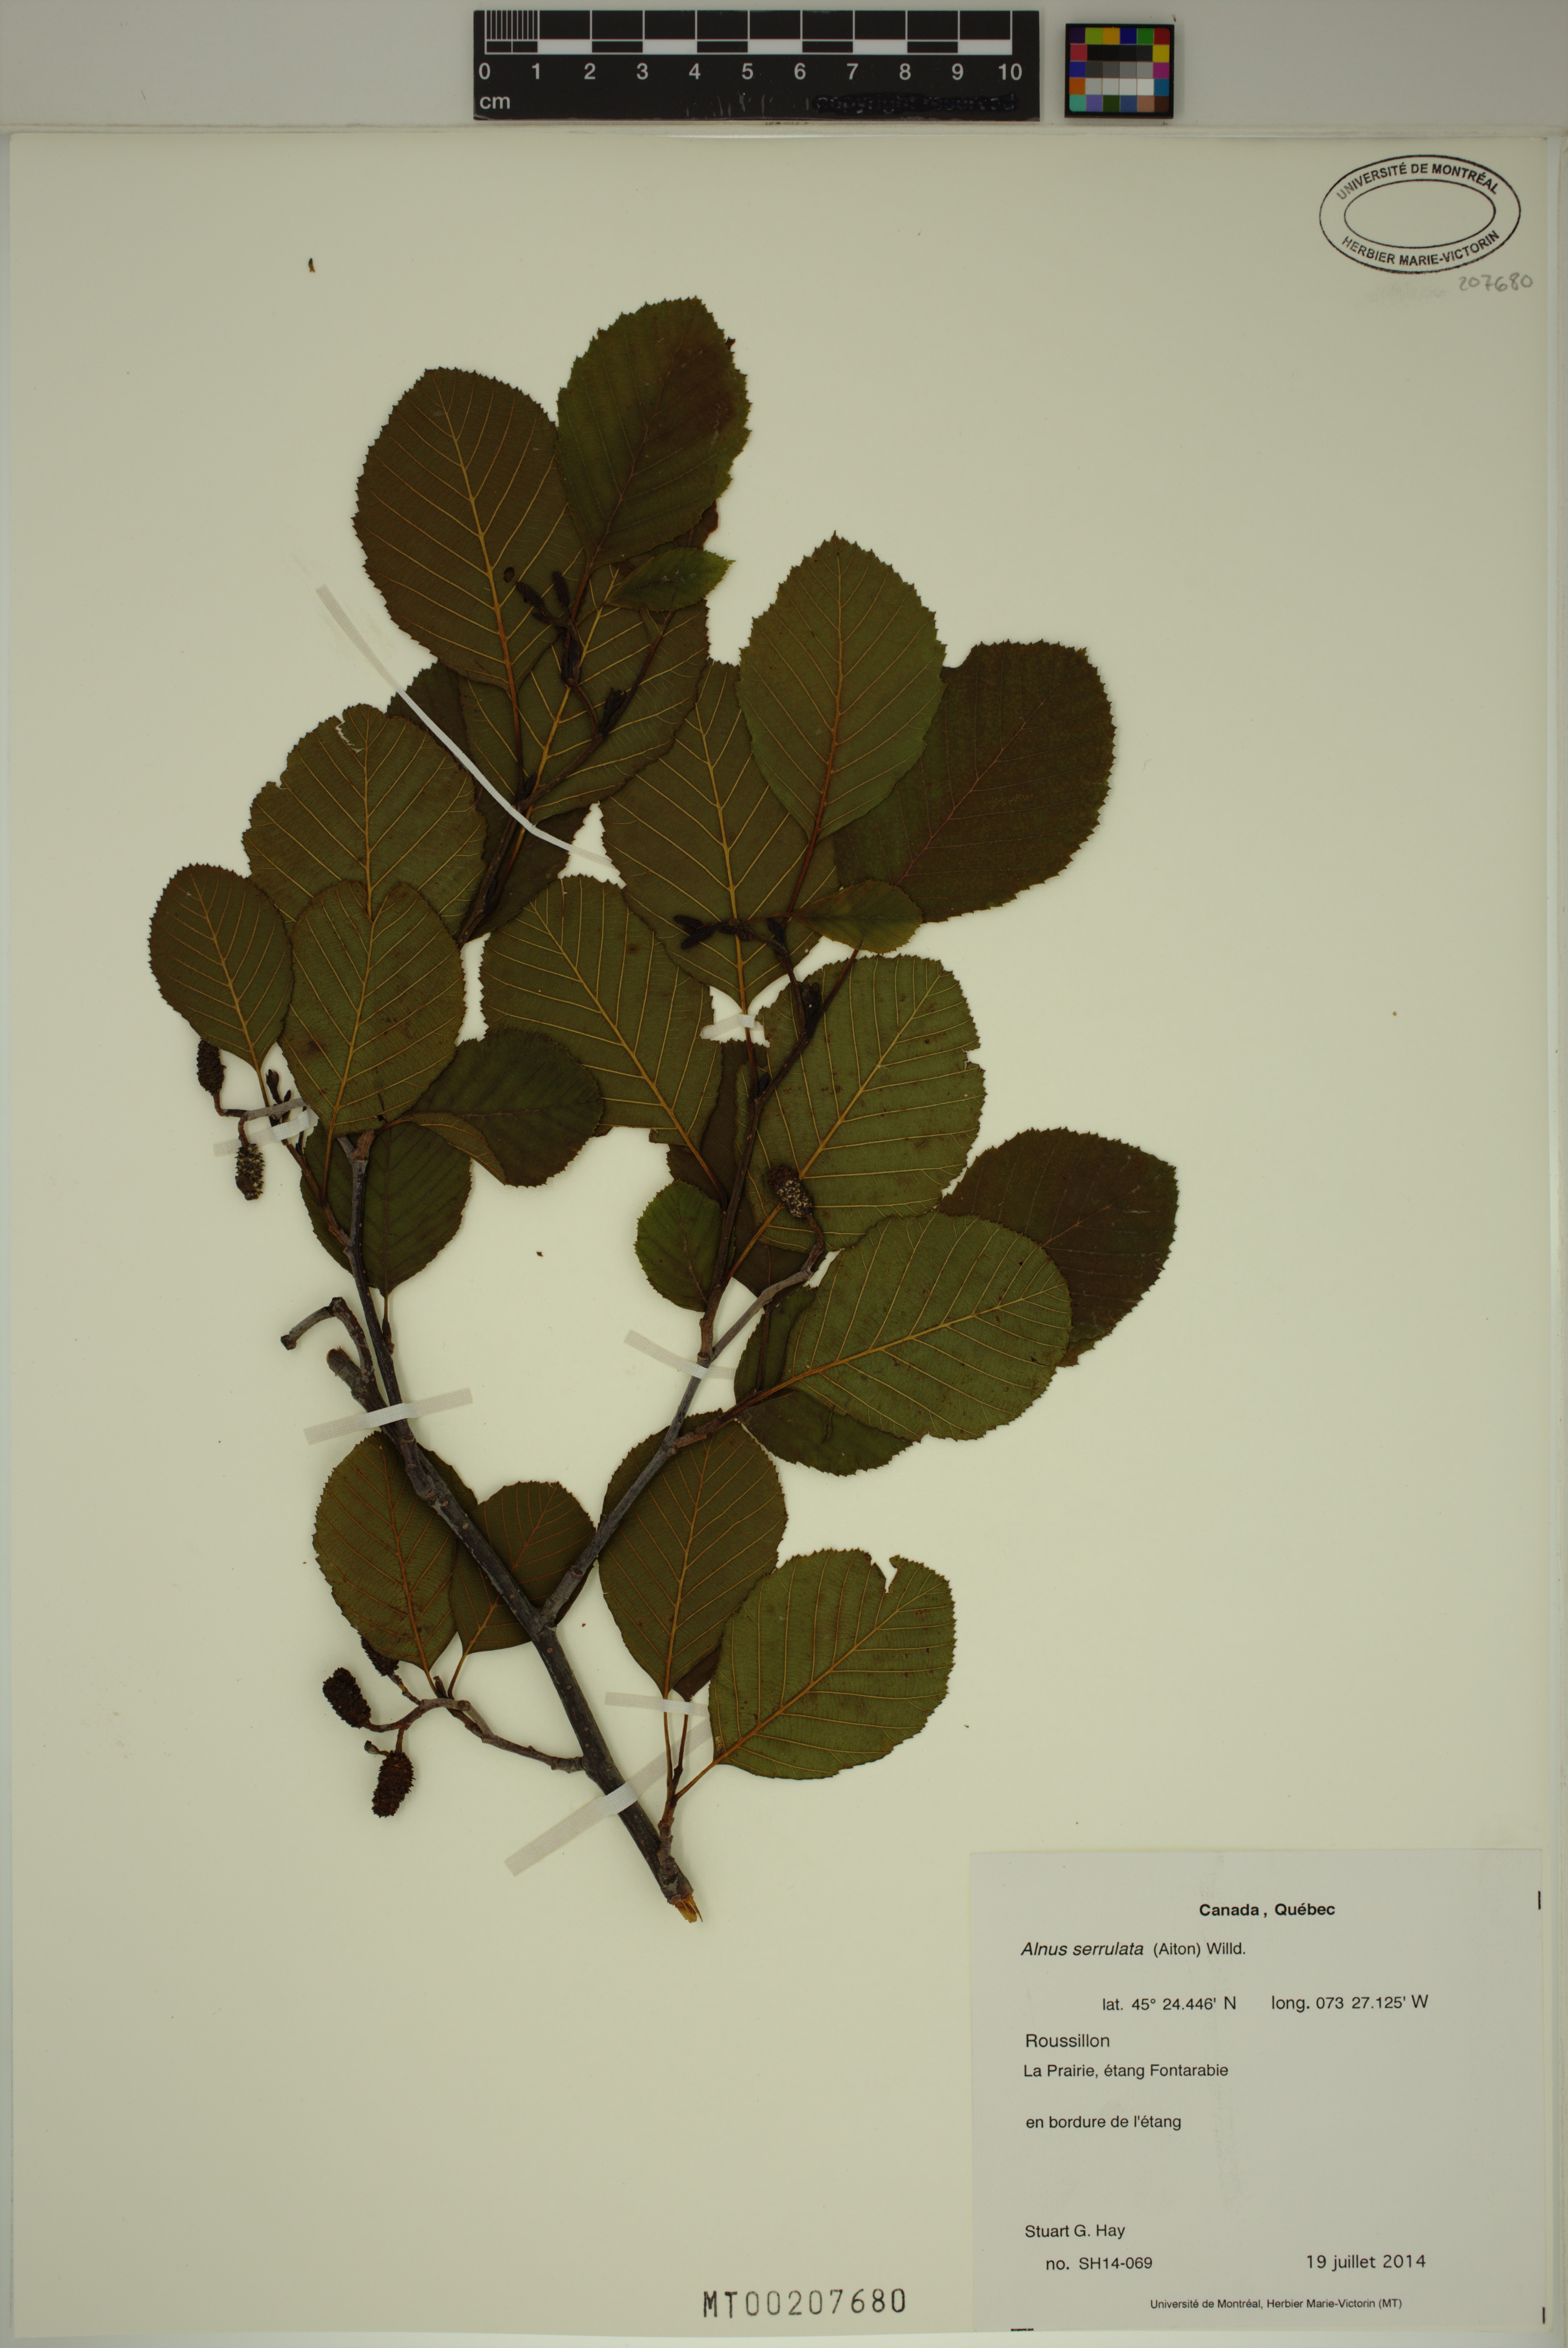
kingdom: Plantae
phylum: Tracheophyta
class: Magnoliopsida
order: Fagales
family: Betulaceae
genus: Alnus
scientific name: Alnus serrulata
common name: Hazel alder
